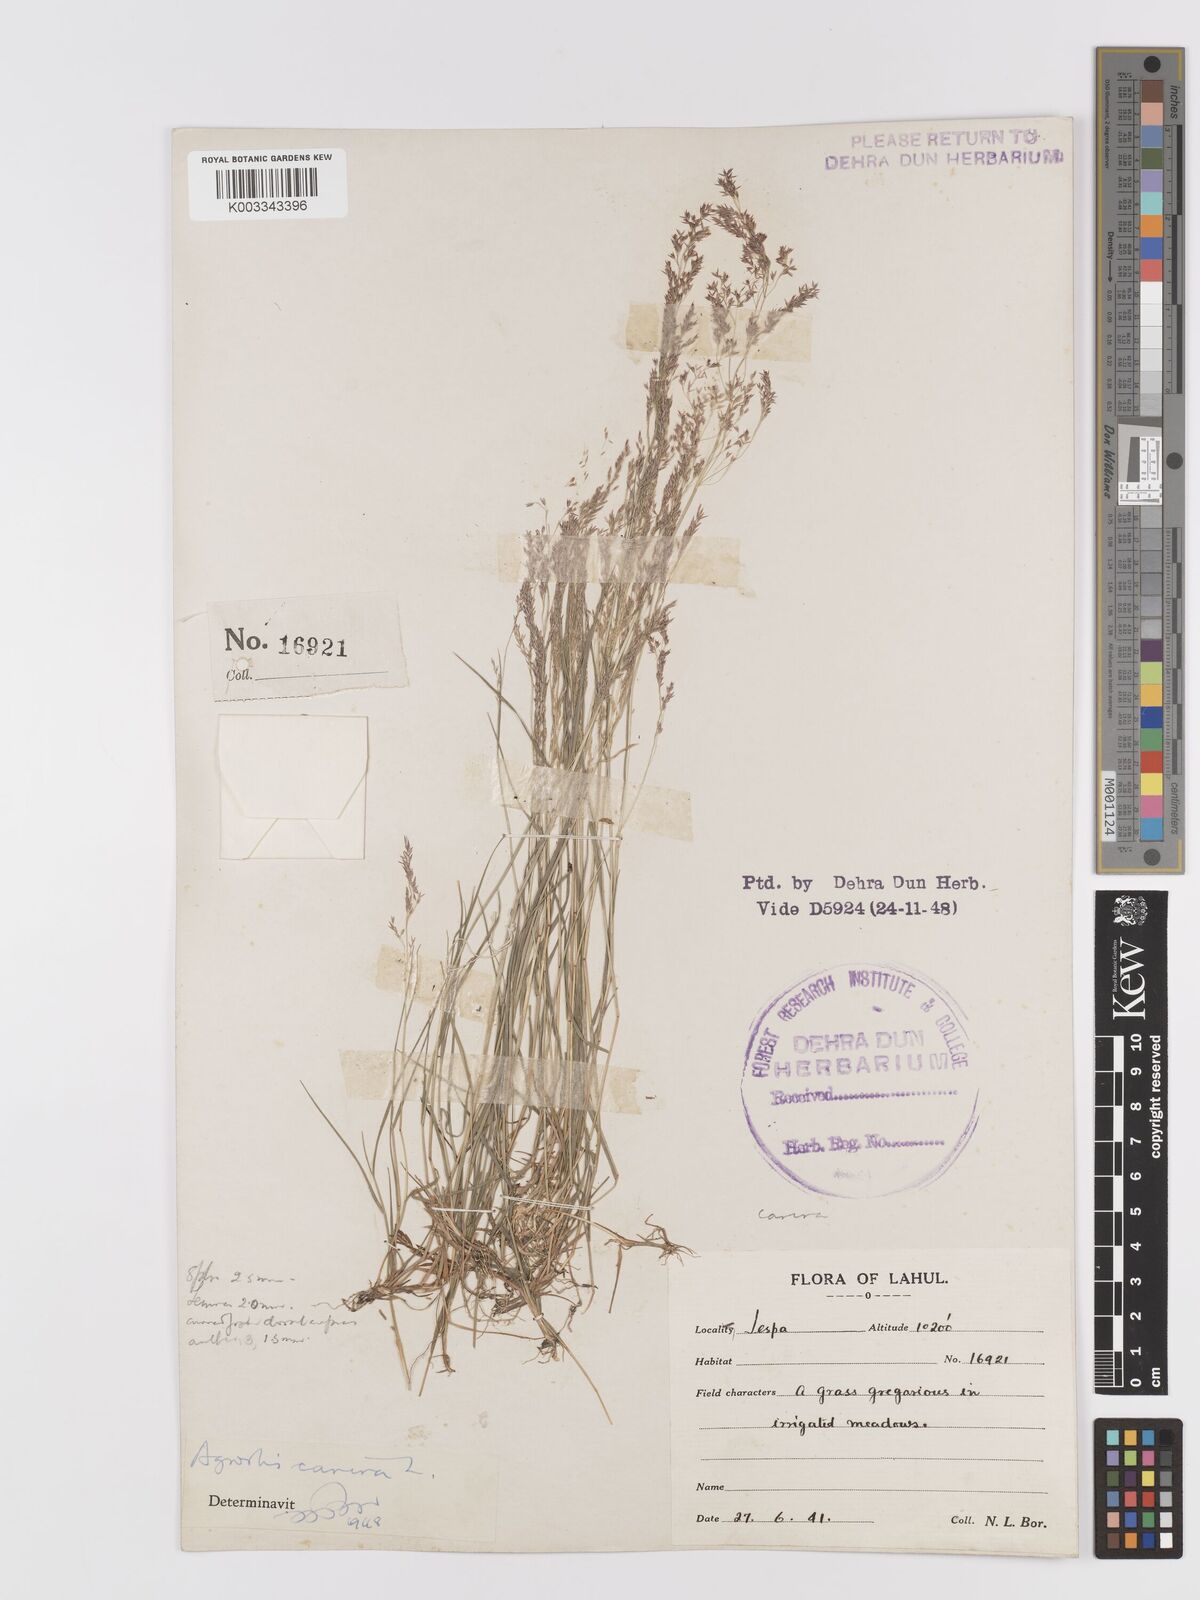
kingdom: Plantae
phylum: Tracheophyta
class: Liliopsida
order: Poales
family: Poaceae
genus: Agrostis
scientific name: Agrostis vinealis
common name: Brown bent
